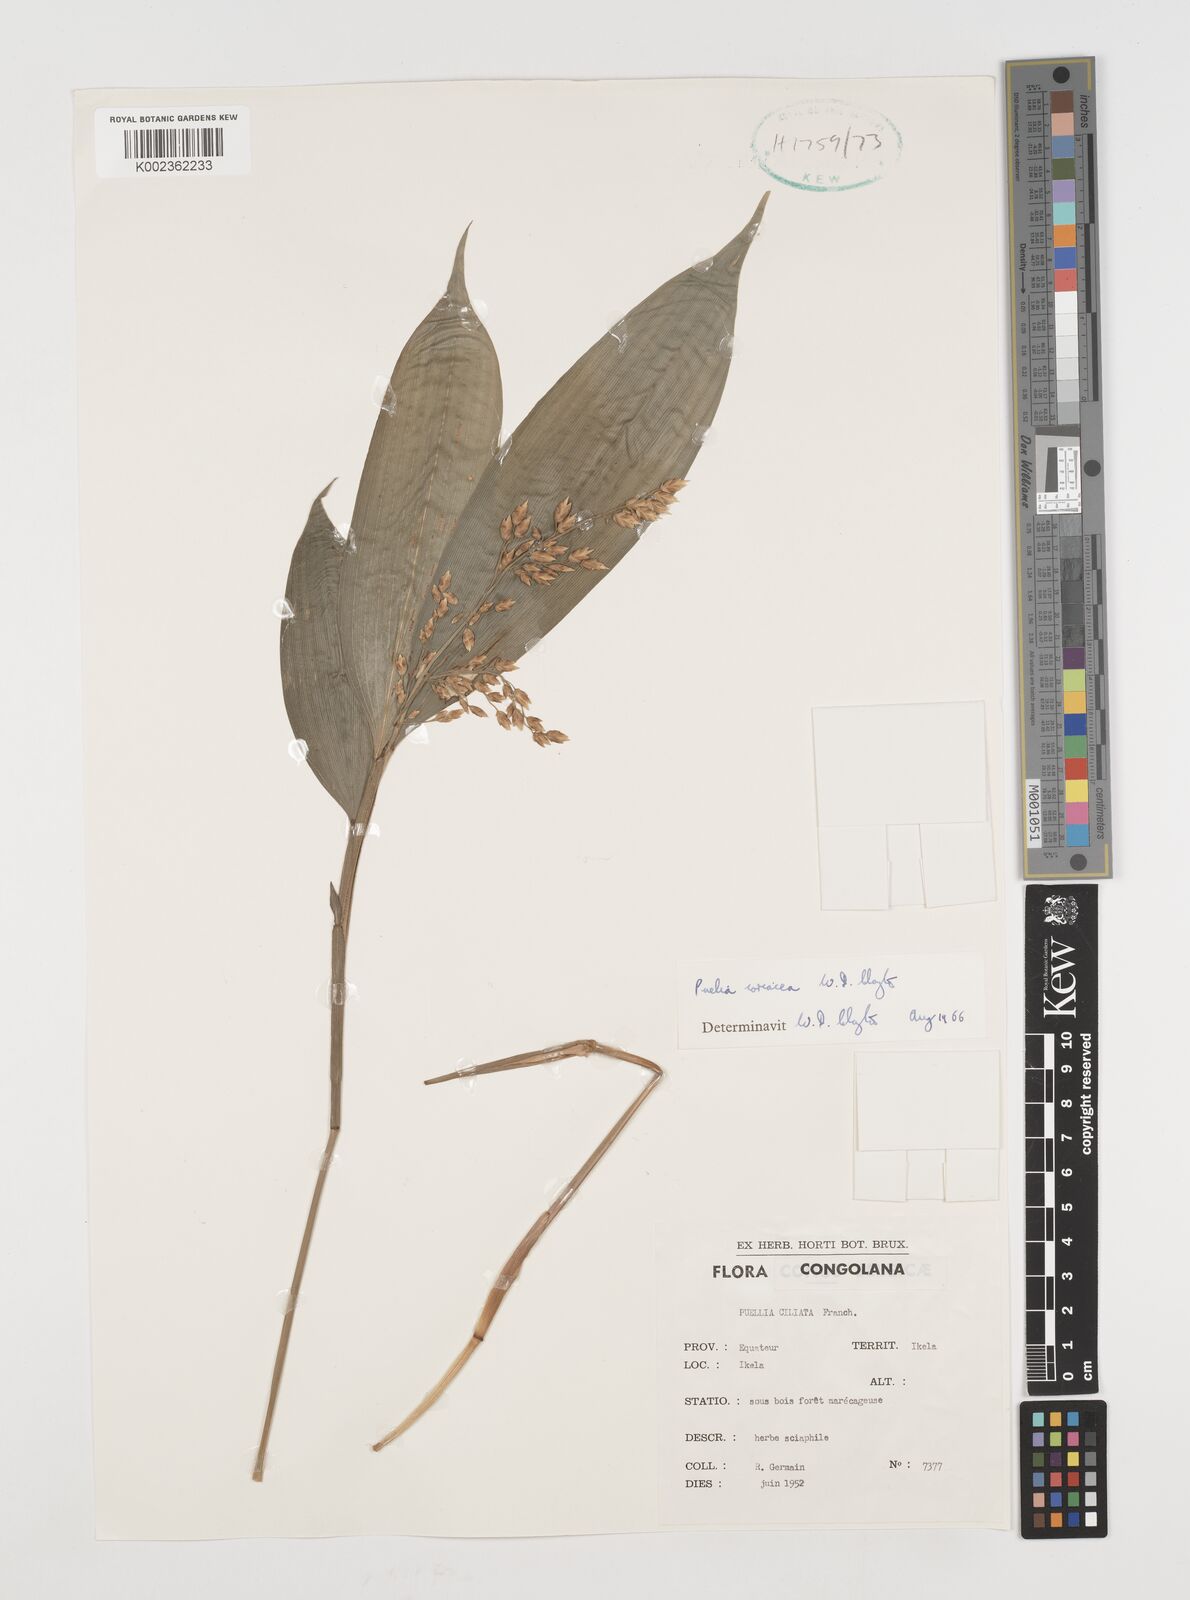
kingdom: Plantae
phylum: Tracheophyta
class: Liliopsida
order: Poales
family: Poaceae
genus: Puelia
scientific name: Puelia coriacea
